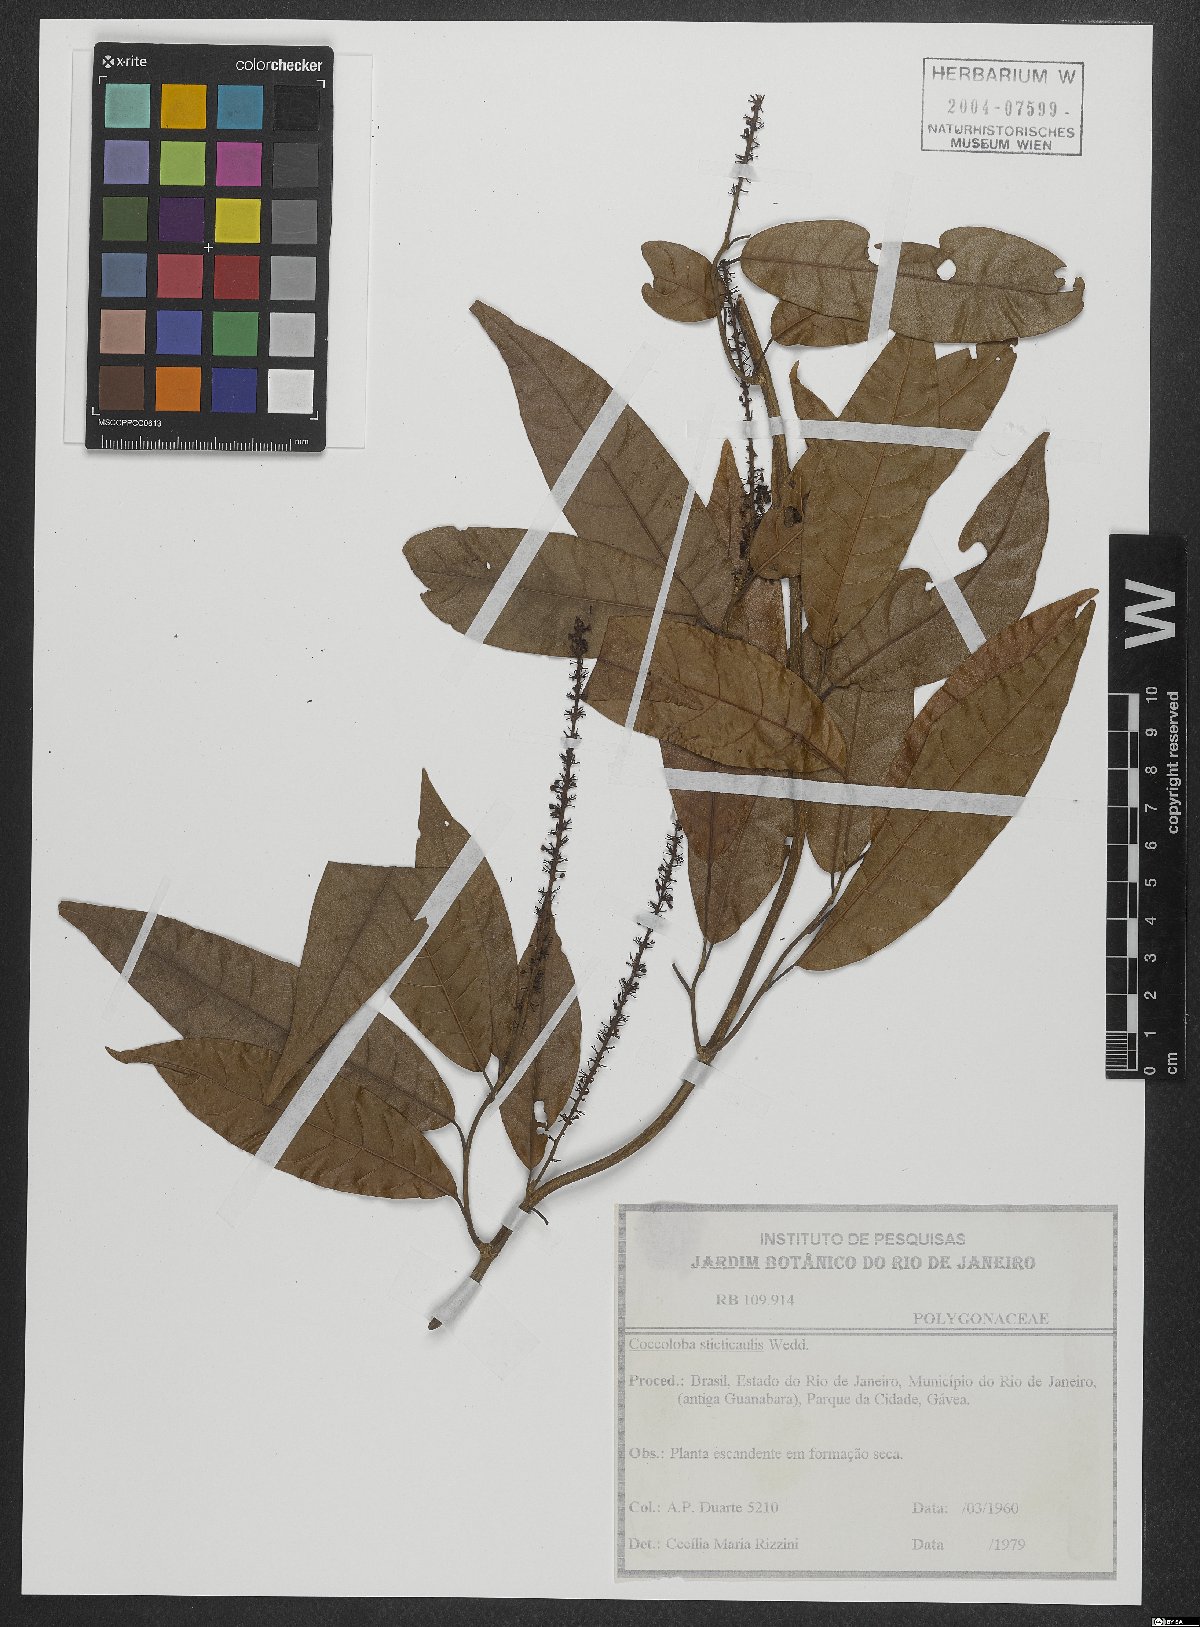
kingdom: Plantae
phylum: Tracheophyta
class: Magnoliopsida
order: Caryophyllales
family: Polygonaceae
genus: Coccoloba
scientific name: Coccoloba scandens
